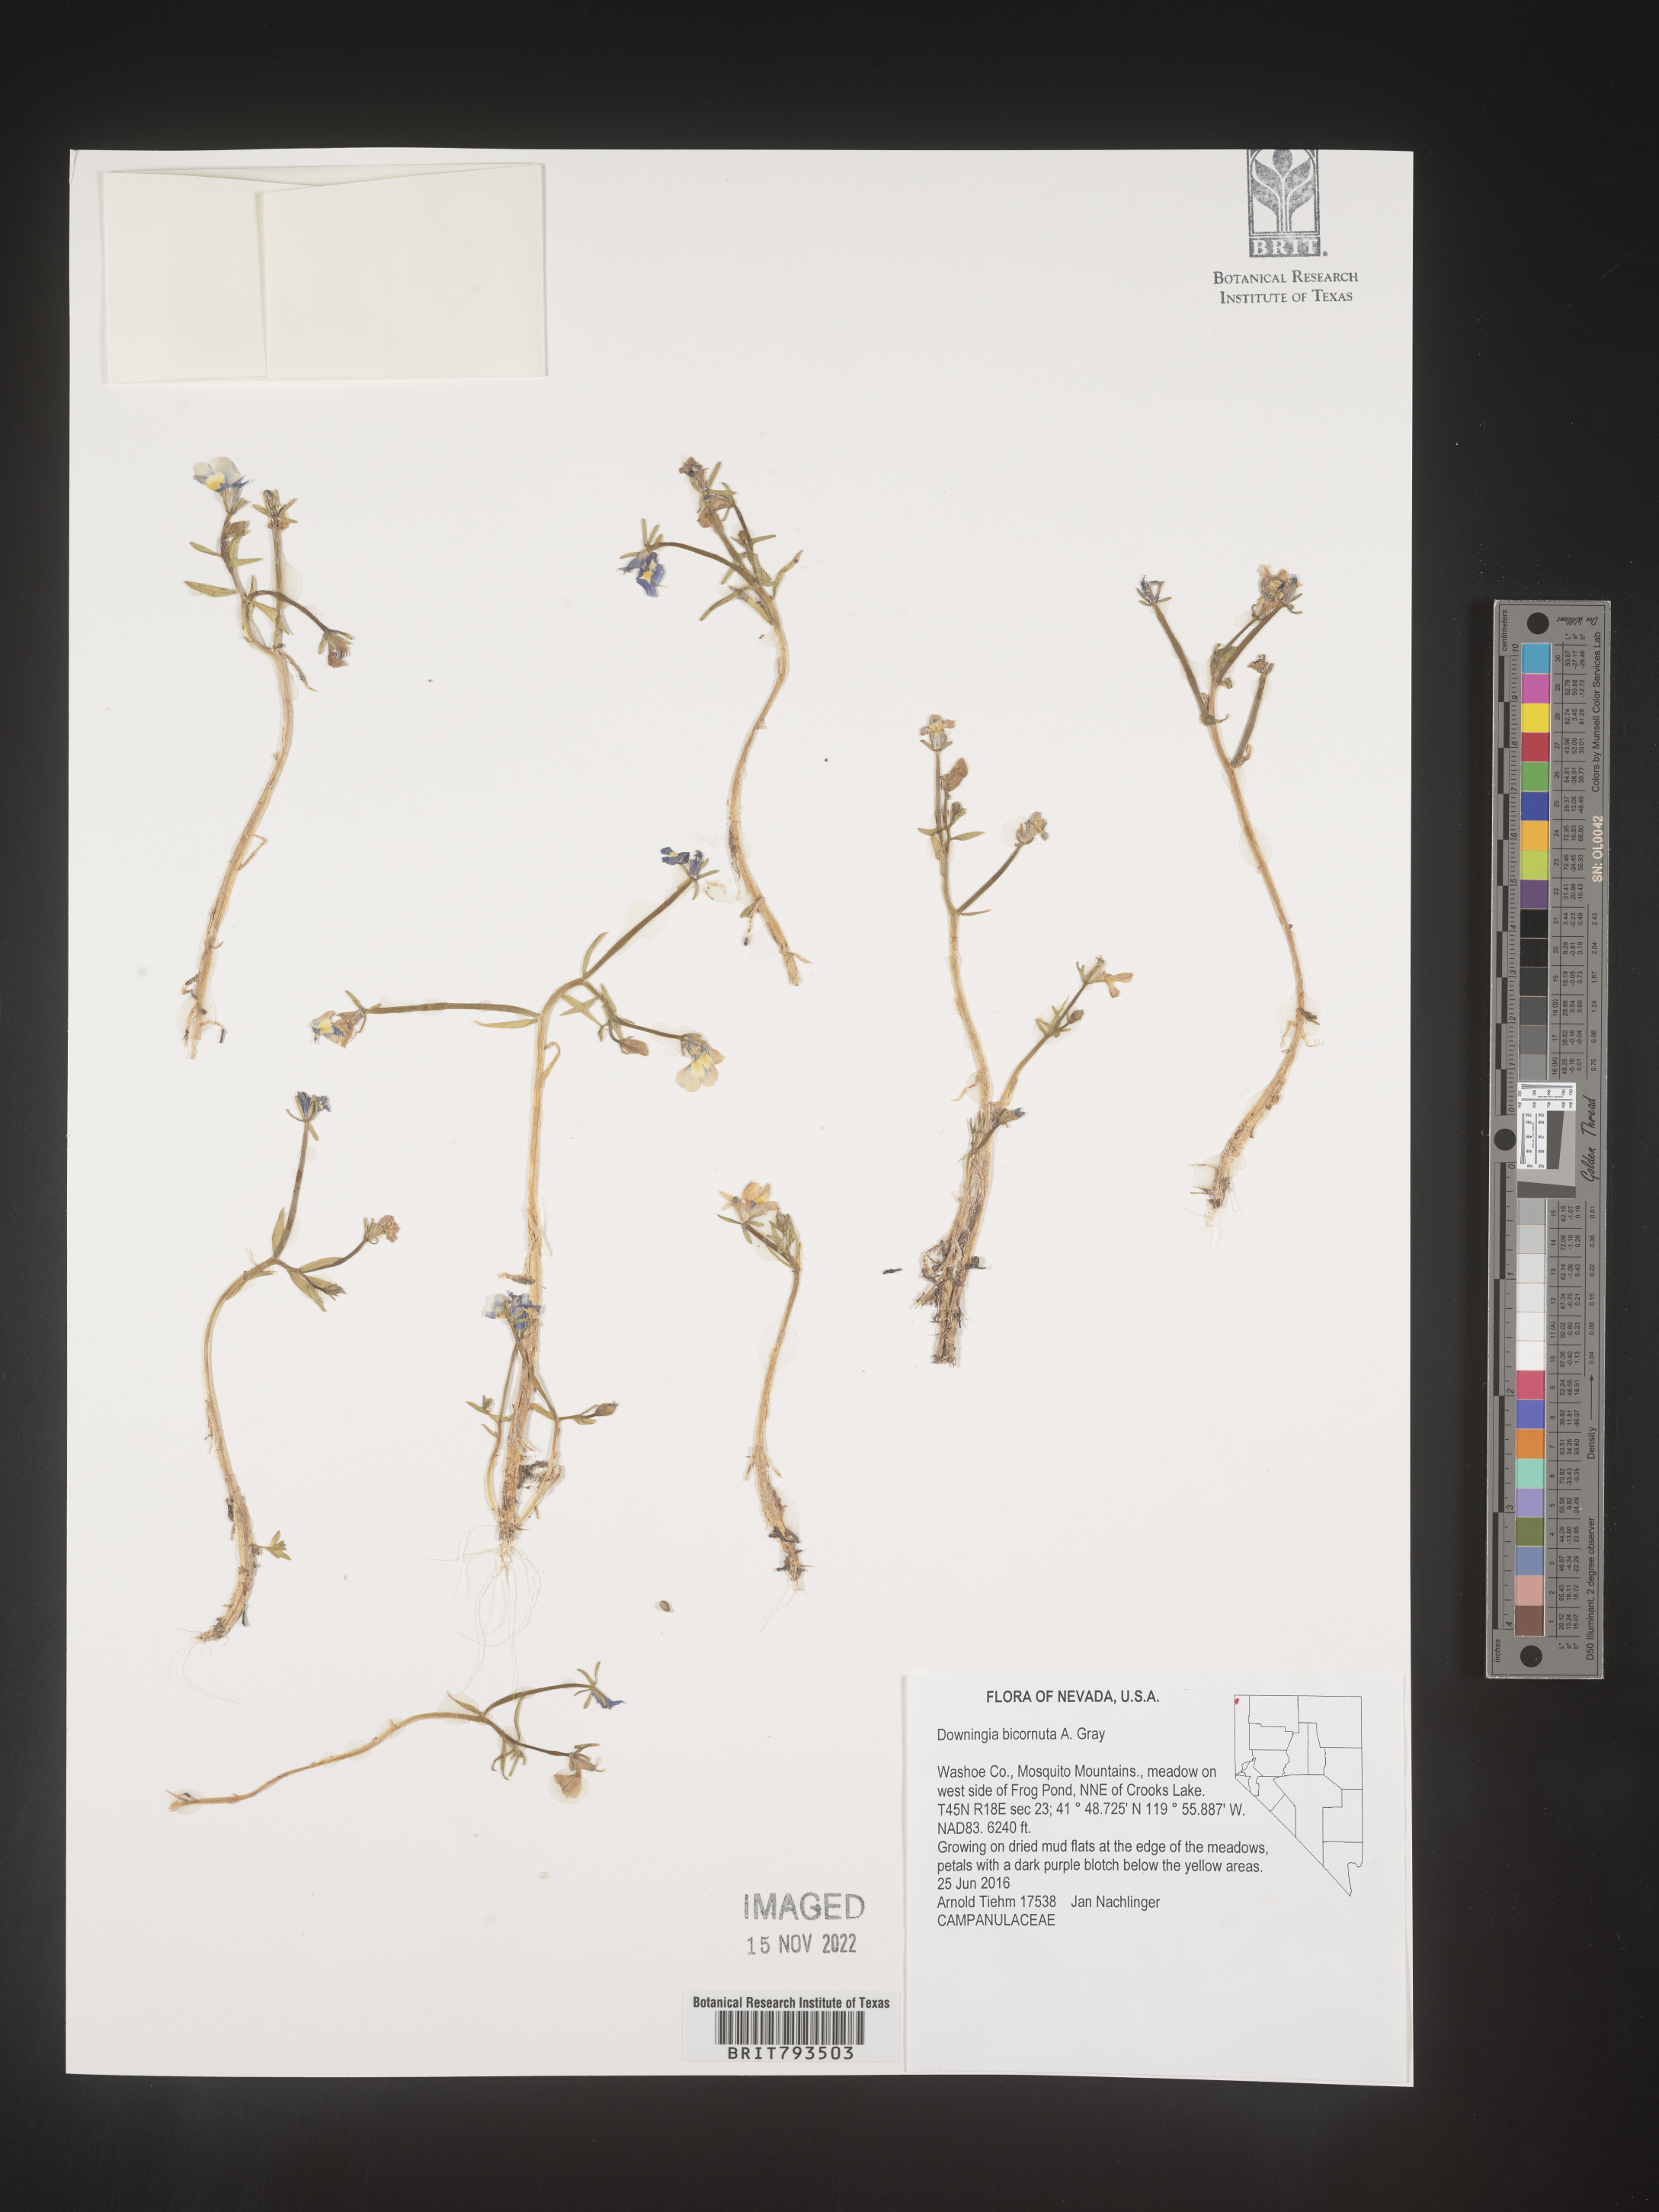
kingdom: Plantae
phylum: Tracheophyta
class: Magnoliopsida
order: Asterales
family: Campanulaceae
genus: Downingia
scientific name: Downingia bicornuta
